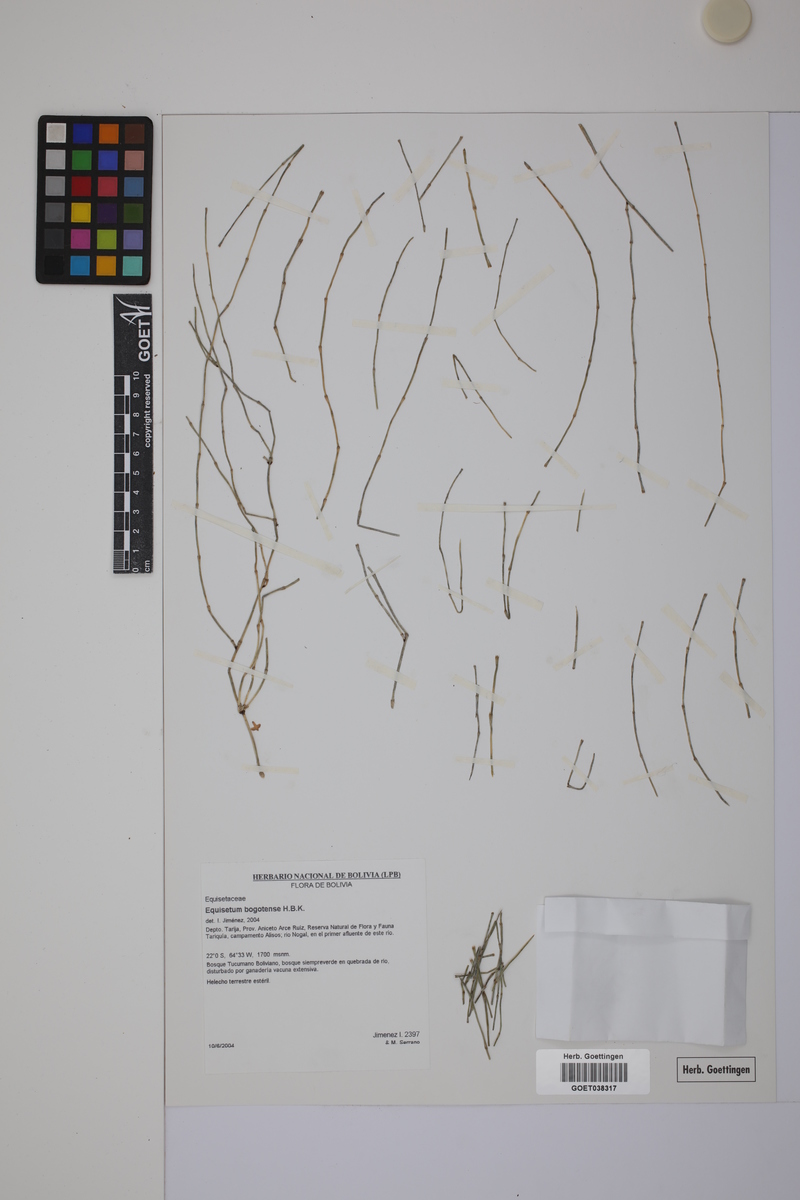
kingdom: Plantae
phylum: Tracheophyta
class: Polypodiopsida
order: Equisetales
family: Equisetaceae
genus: Equisetum
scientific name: Equisetum bogotense
